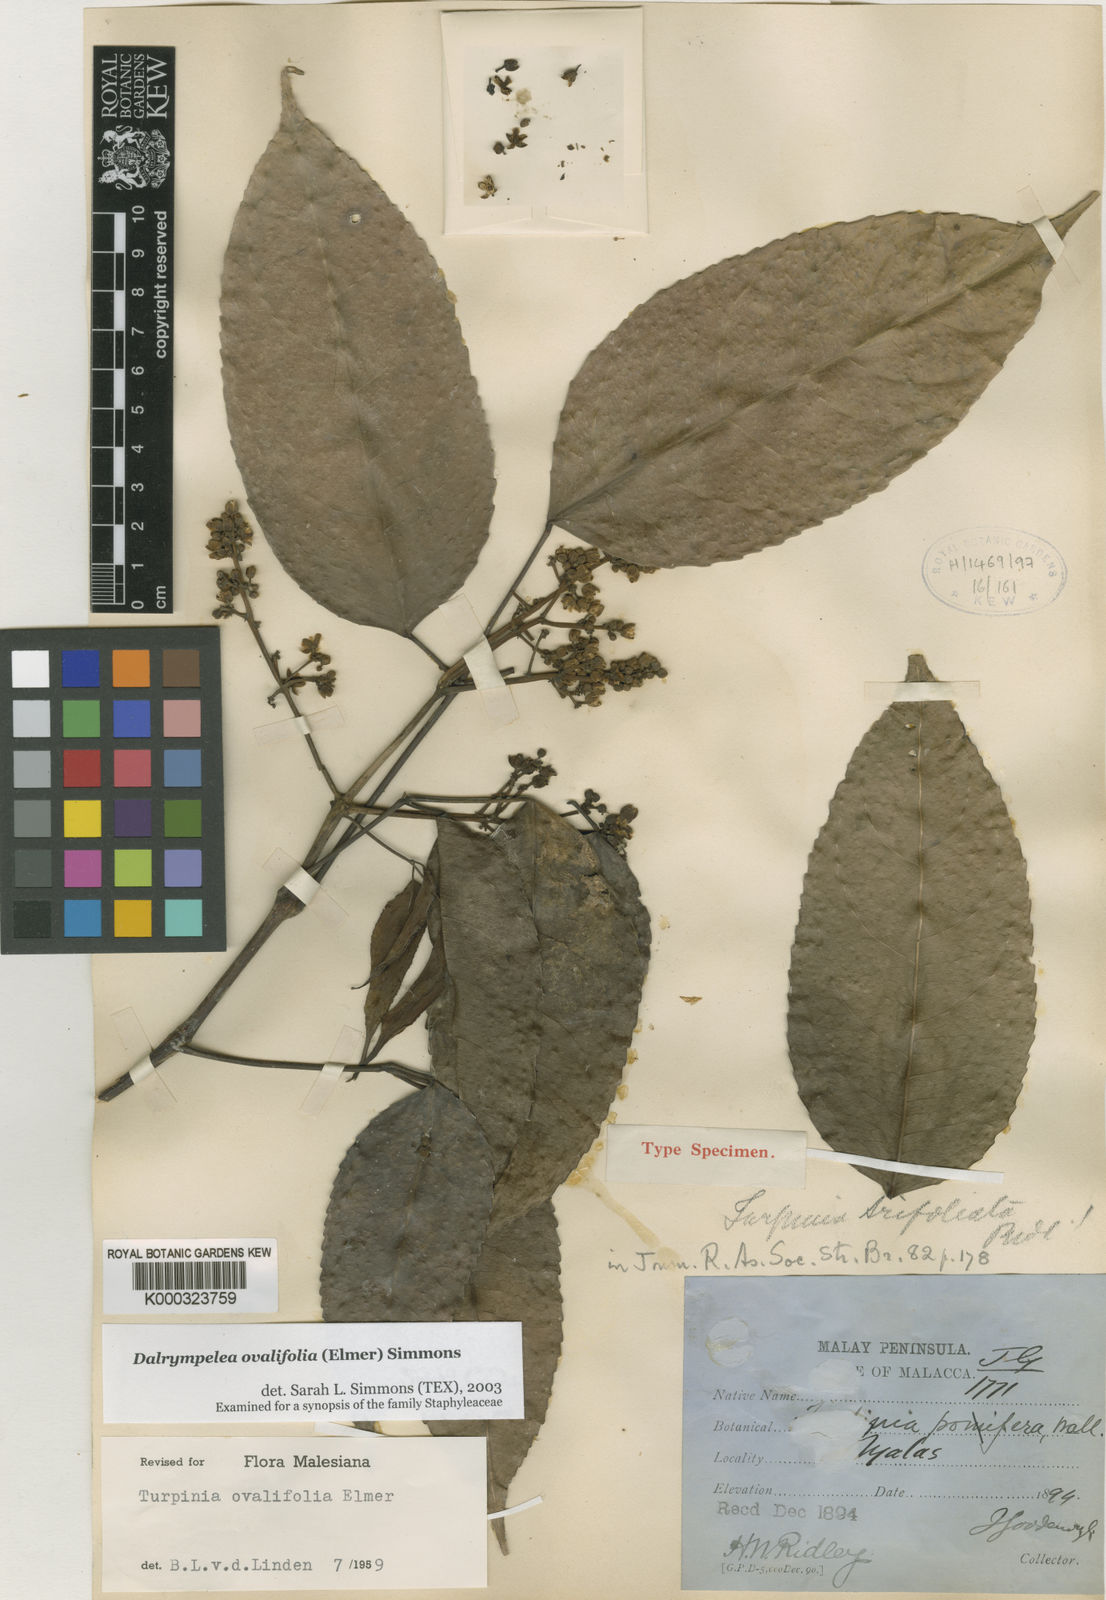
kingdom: Plantae
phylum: Tracheophyta
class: Magnoliopsida
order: Crossosomatales
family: Staphyleaceae
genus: Dalrympelea
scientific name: Dalrympelea trifoliata
